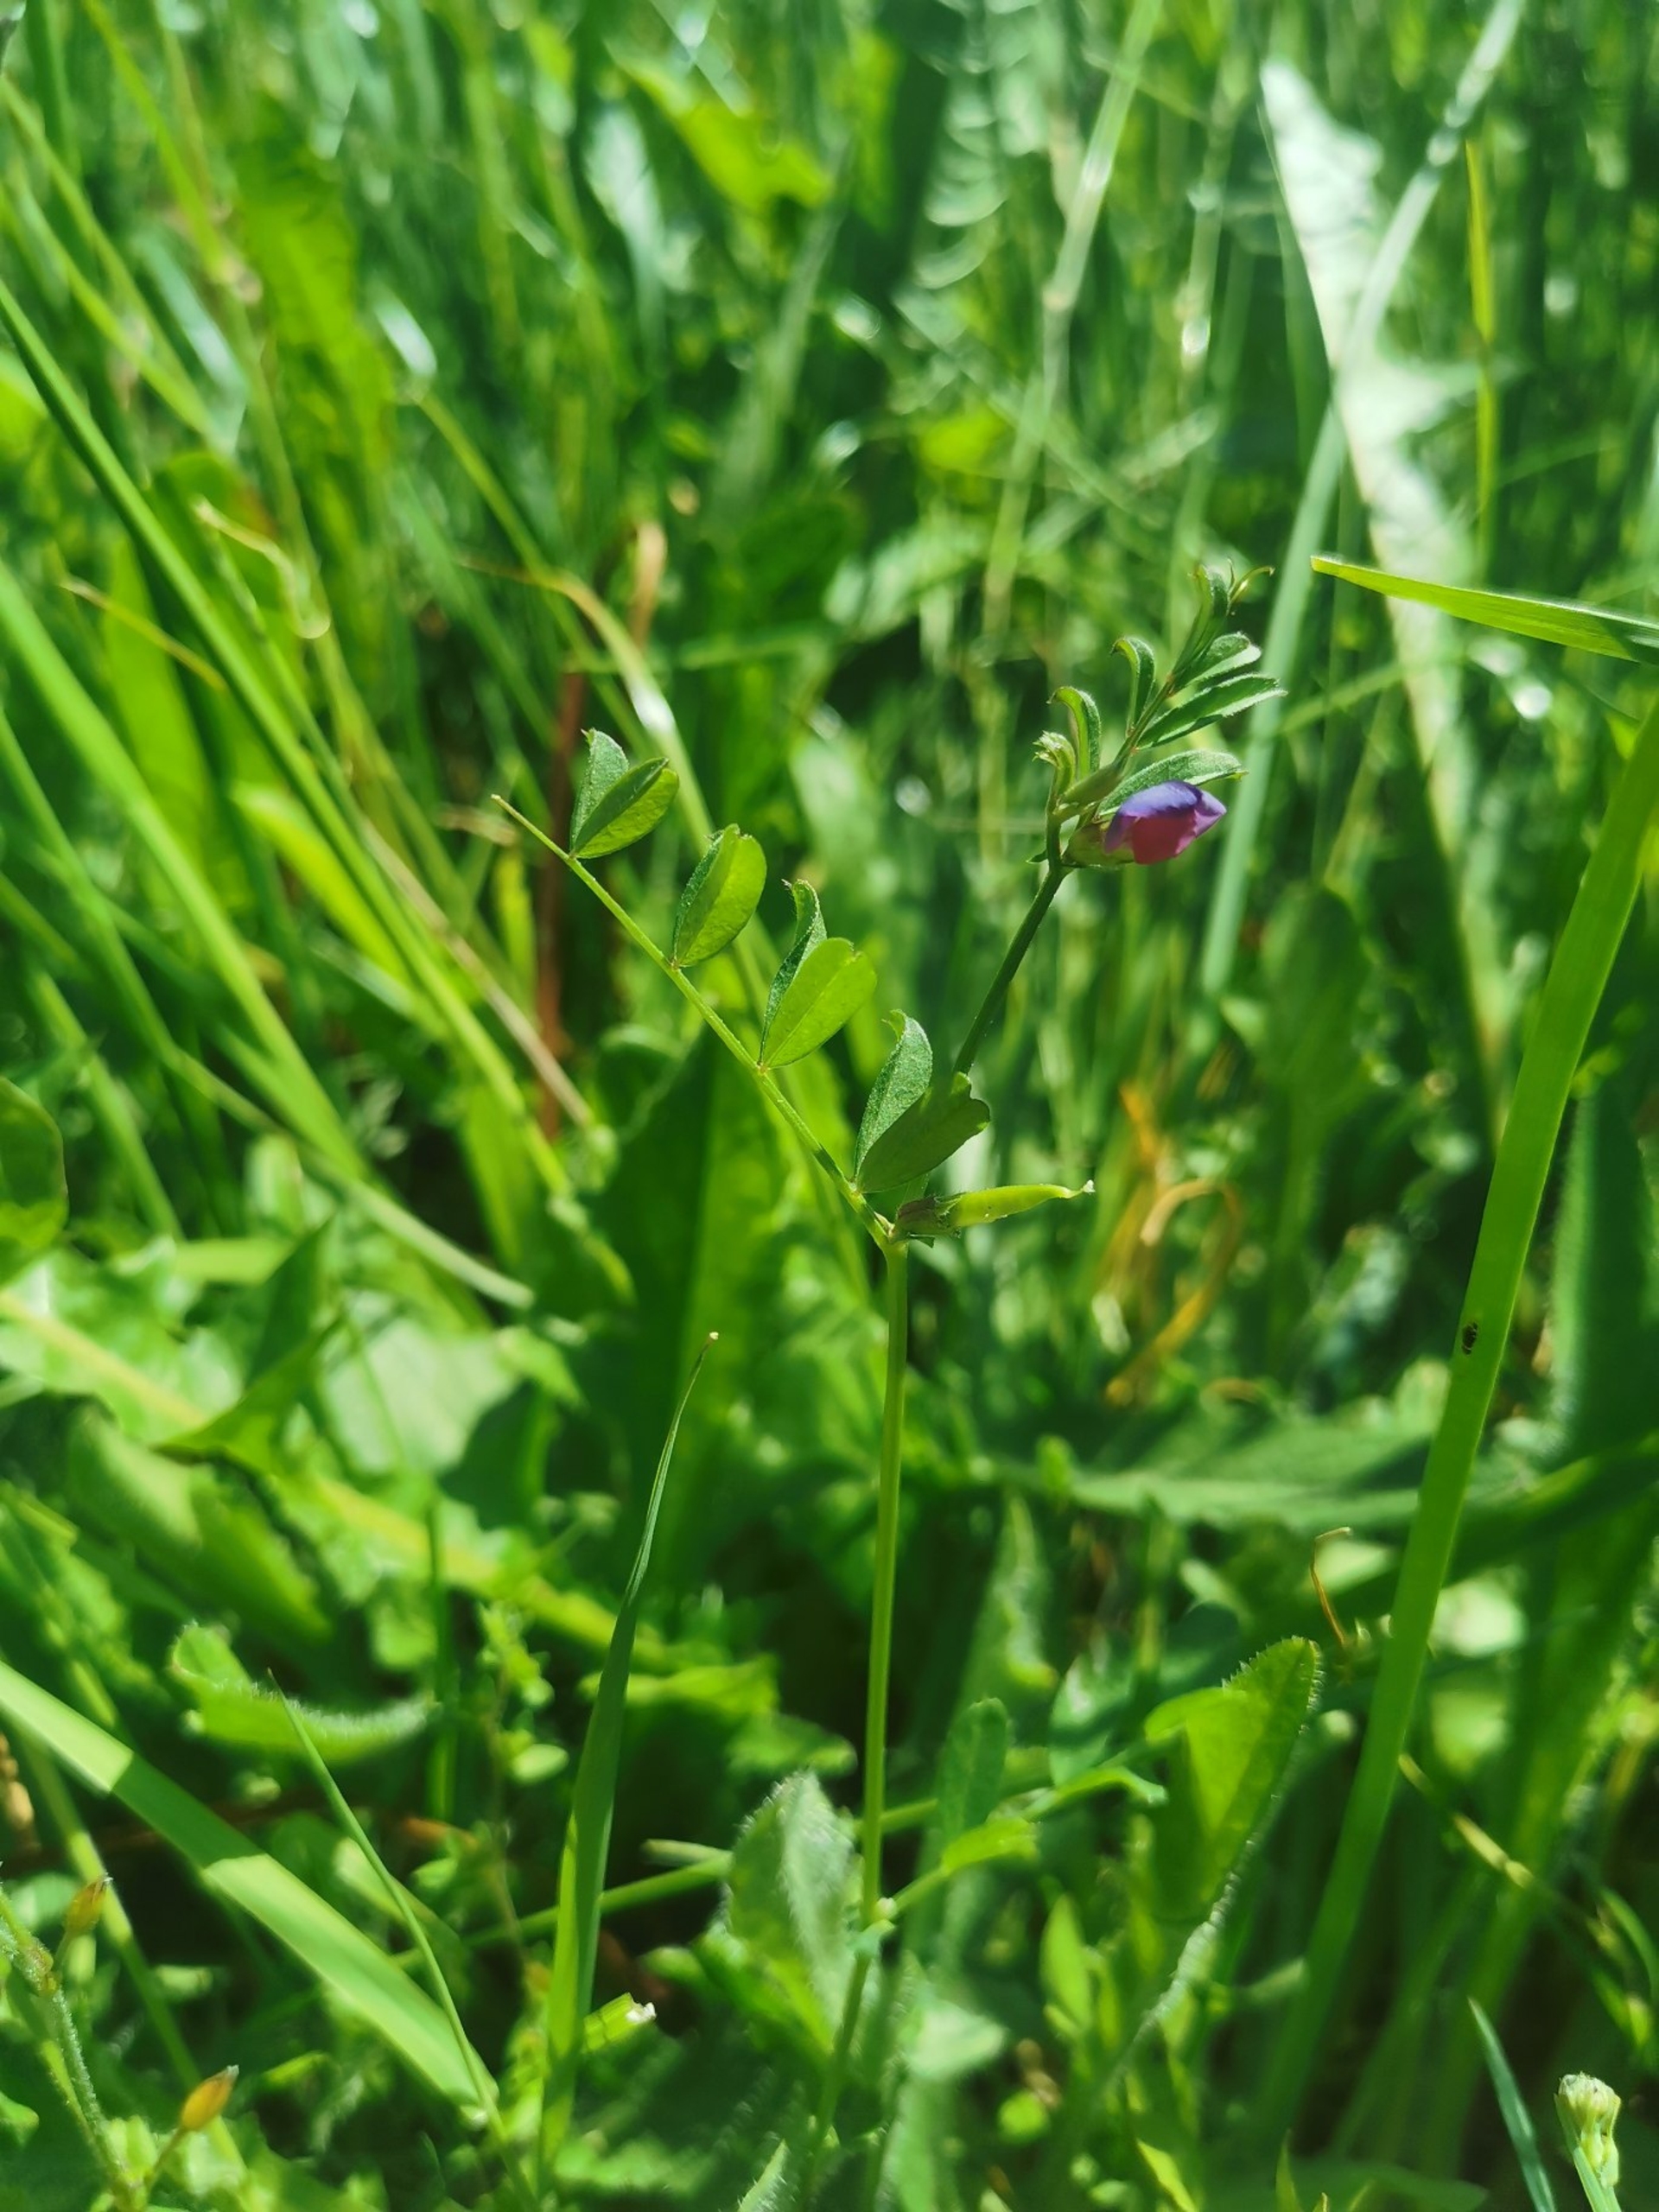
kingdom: Plantae
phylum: Tracheophyta
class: Magnoliopsida
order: Fabales
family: Fabaceae
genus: Vicia
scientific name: Vicia sativa
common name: Foder-vikke
